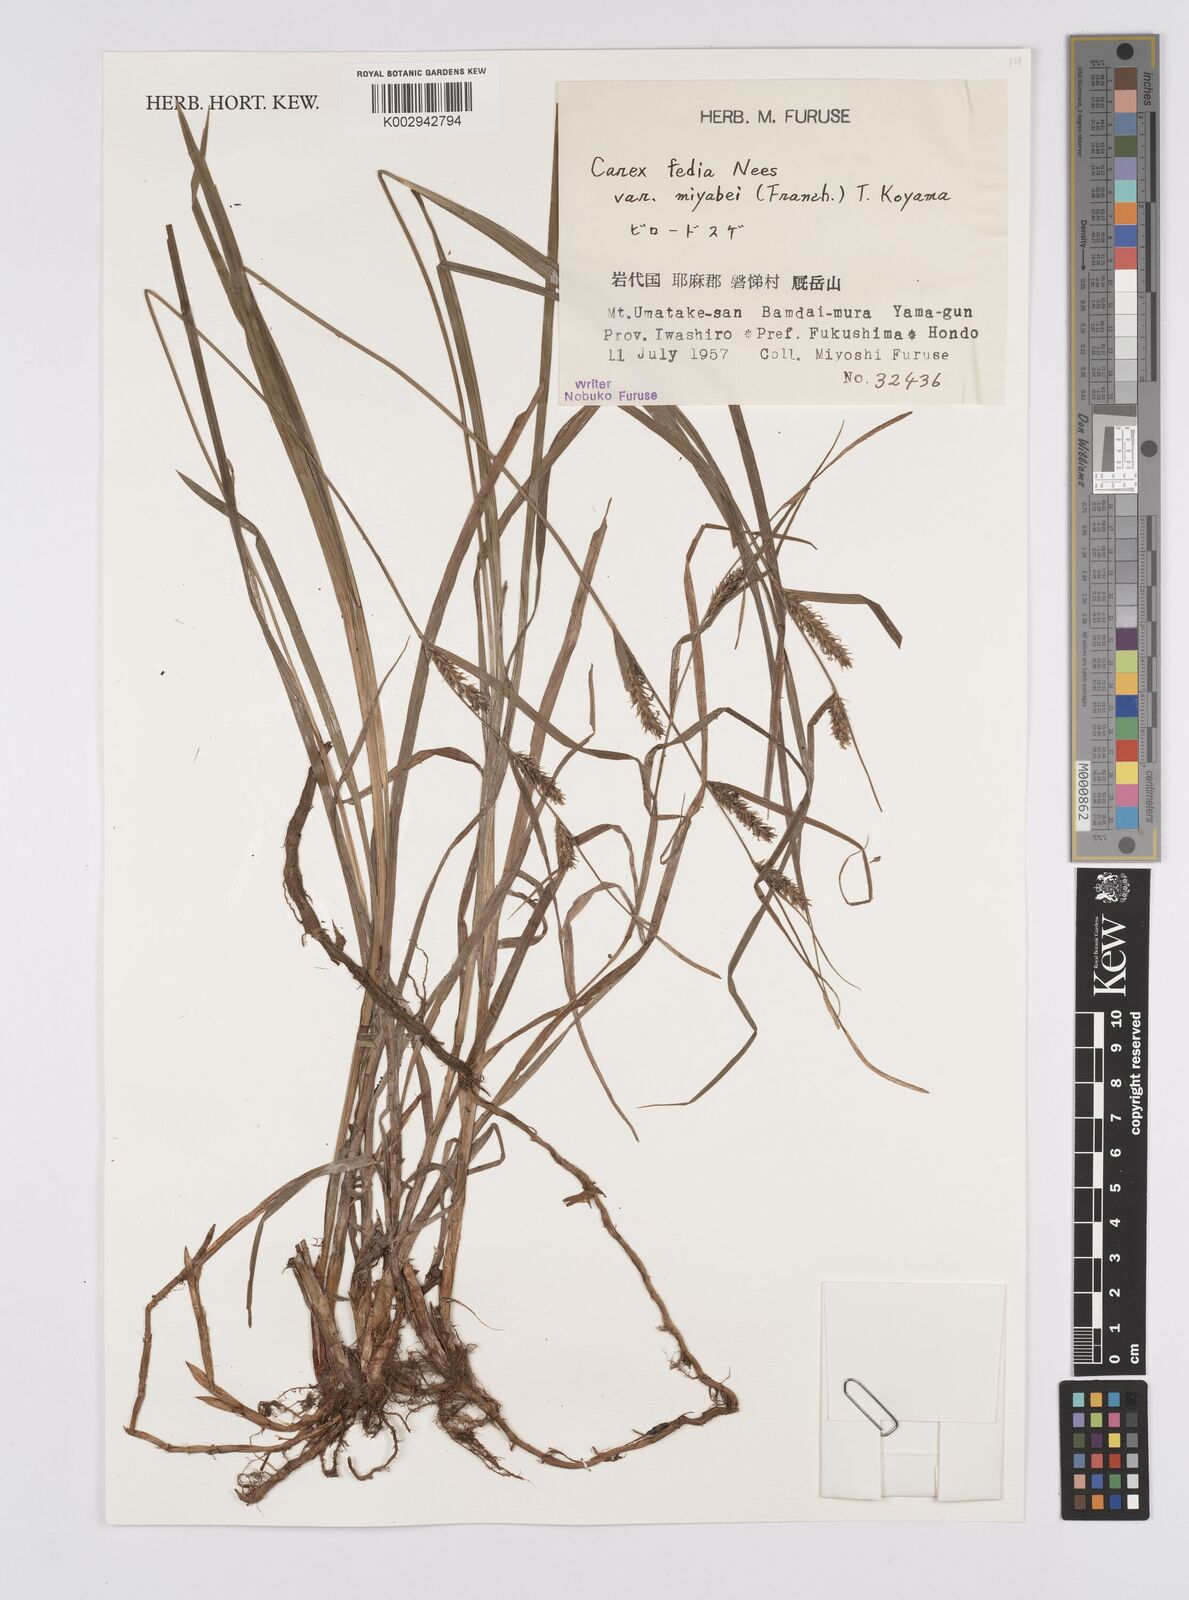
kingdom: Plantae
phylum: Tracheophyta
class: Liliopsida
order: Poales
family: Cyperaceae
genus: Carex
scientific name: Carex fedia
